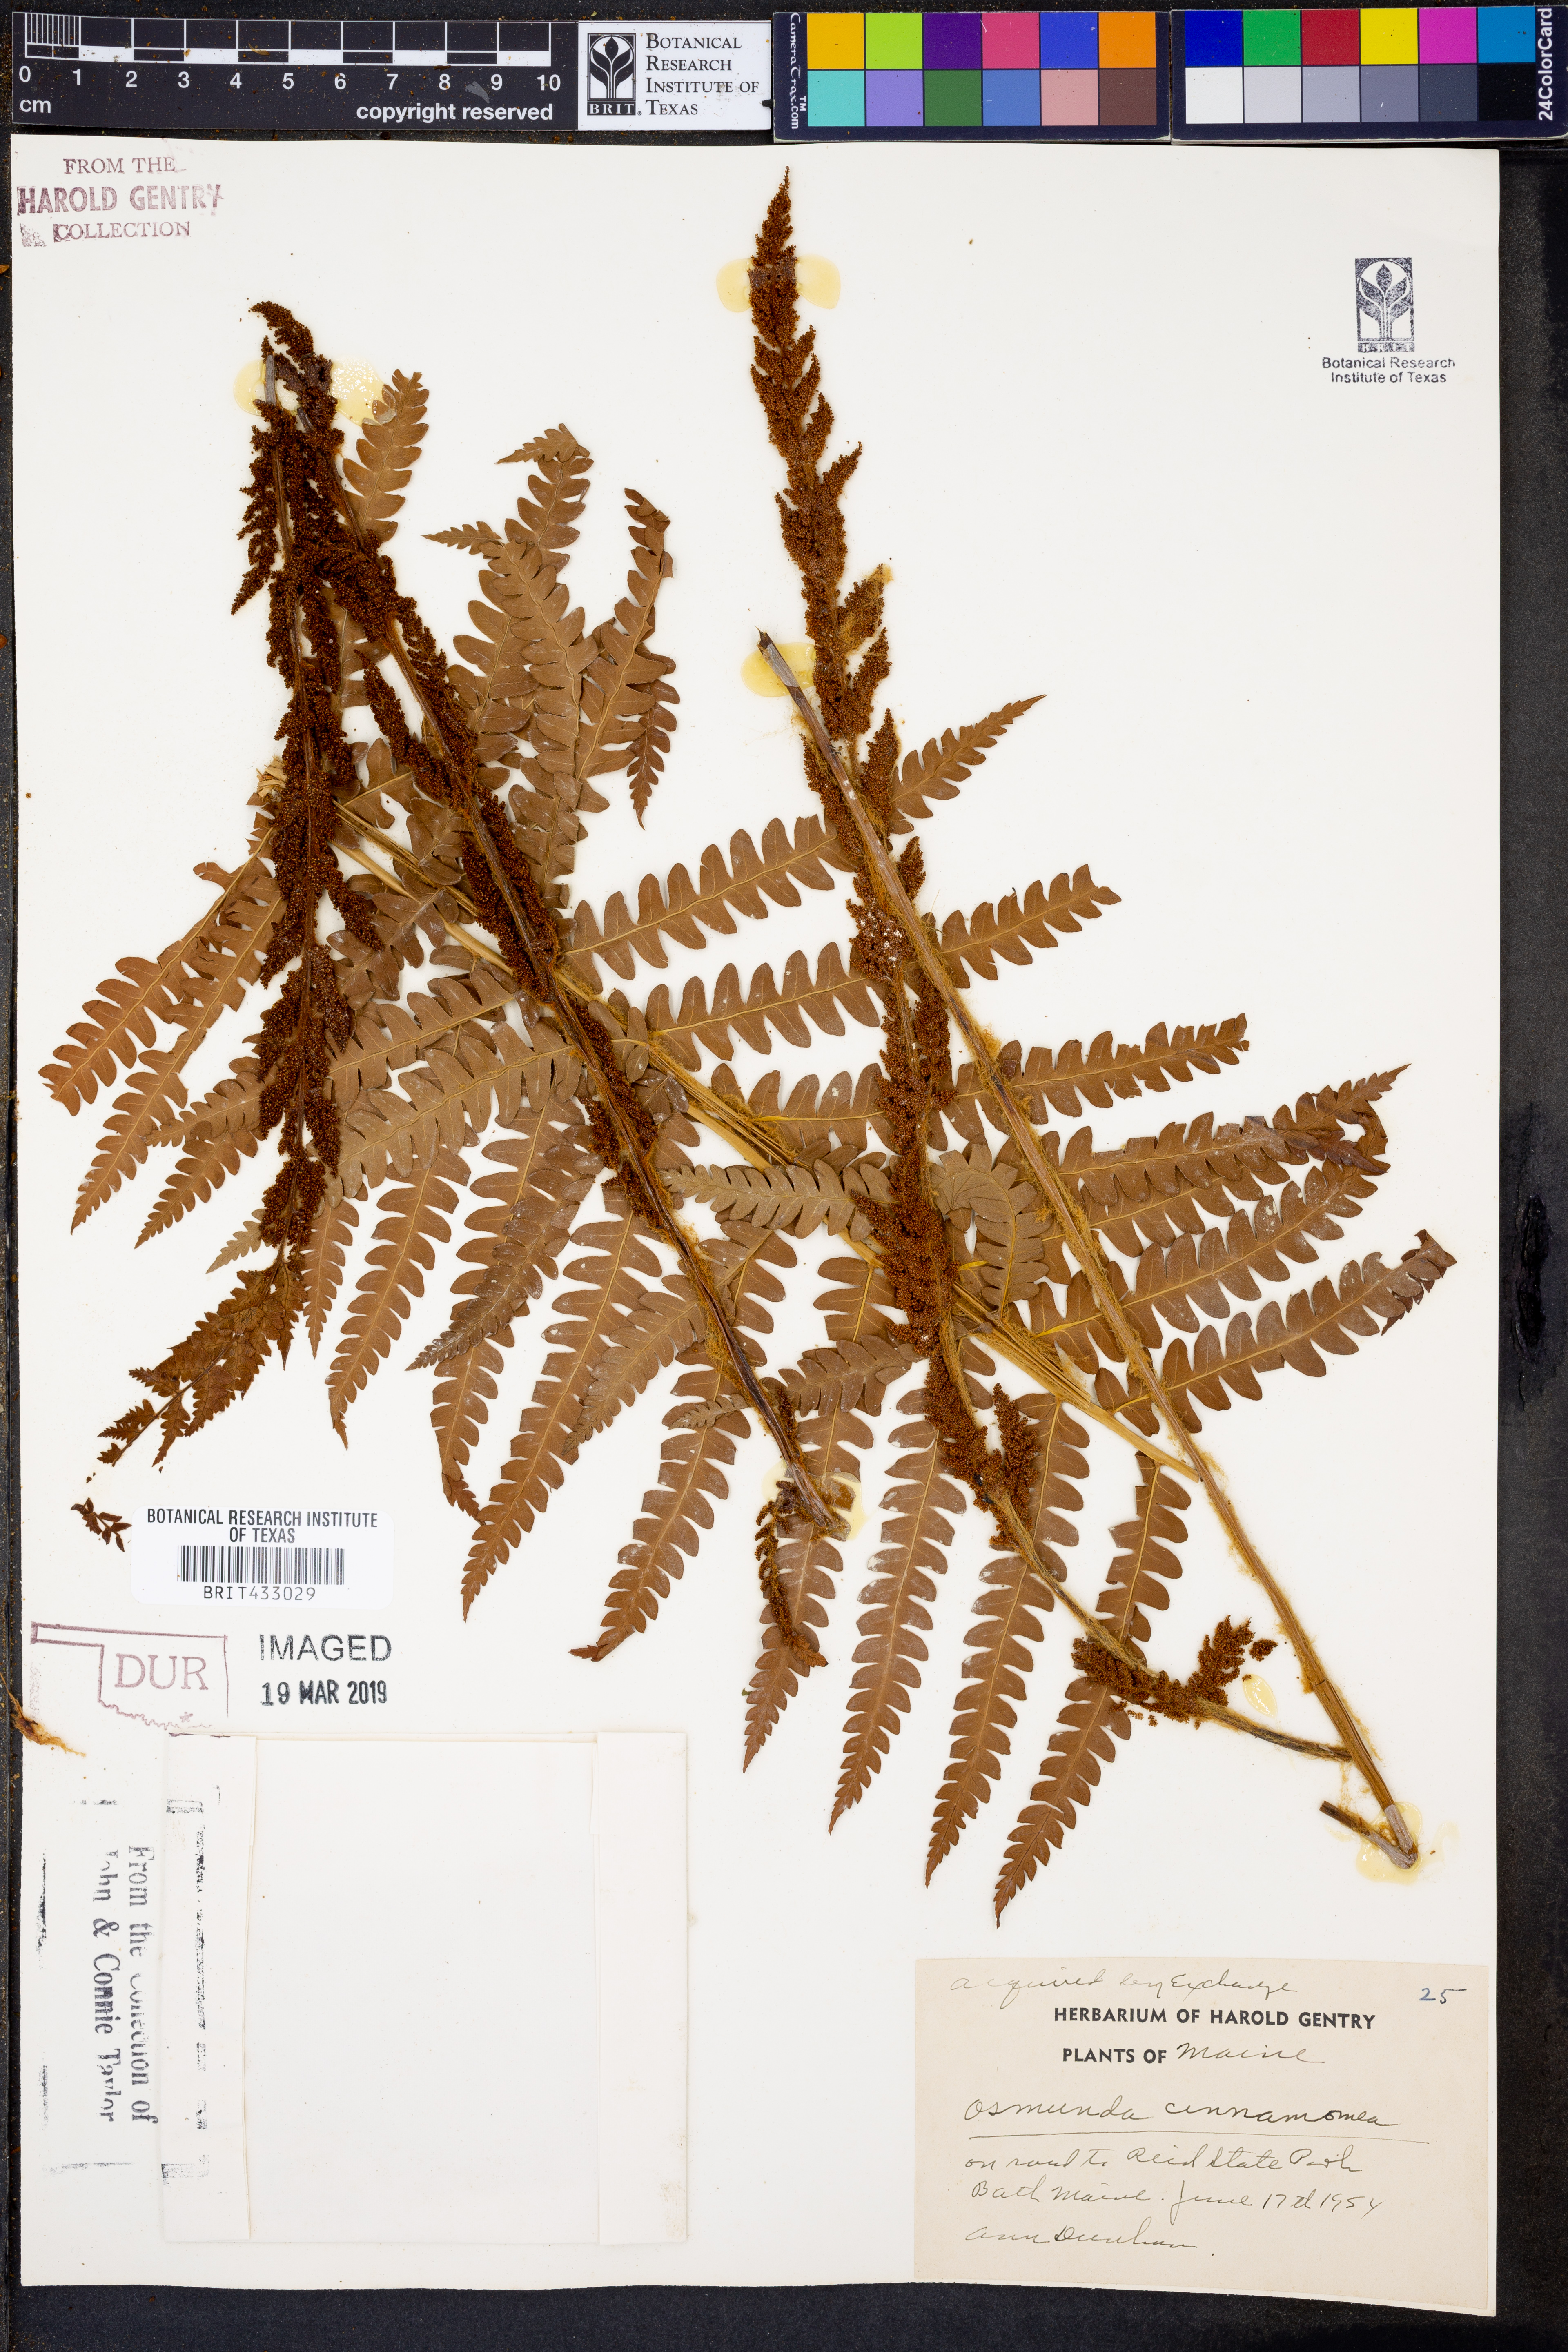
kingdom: Plantae
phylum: Tracheophyta
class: Polypodiopsida
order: Osmundales
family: Osmundaceae
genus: Osmundastrum
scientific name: Osmundastrum cinnamomeum
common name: Cinnamon fern
